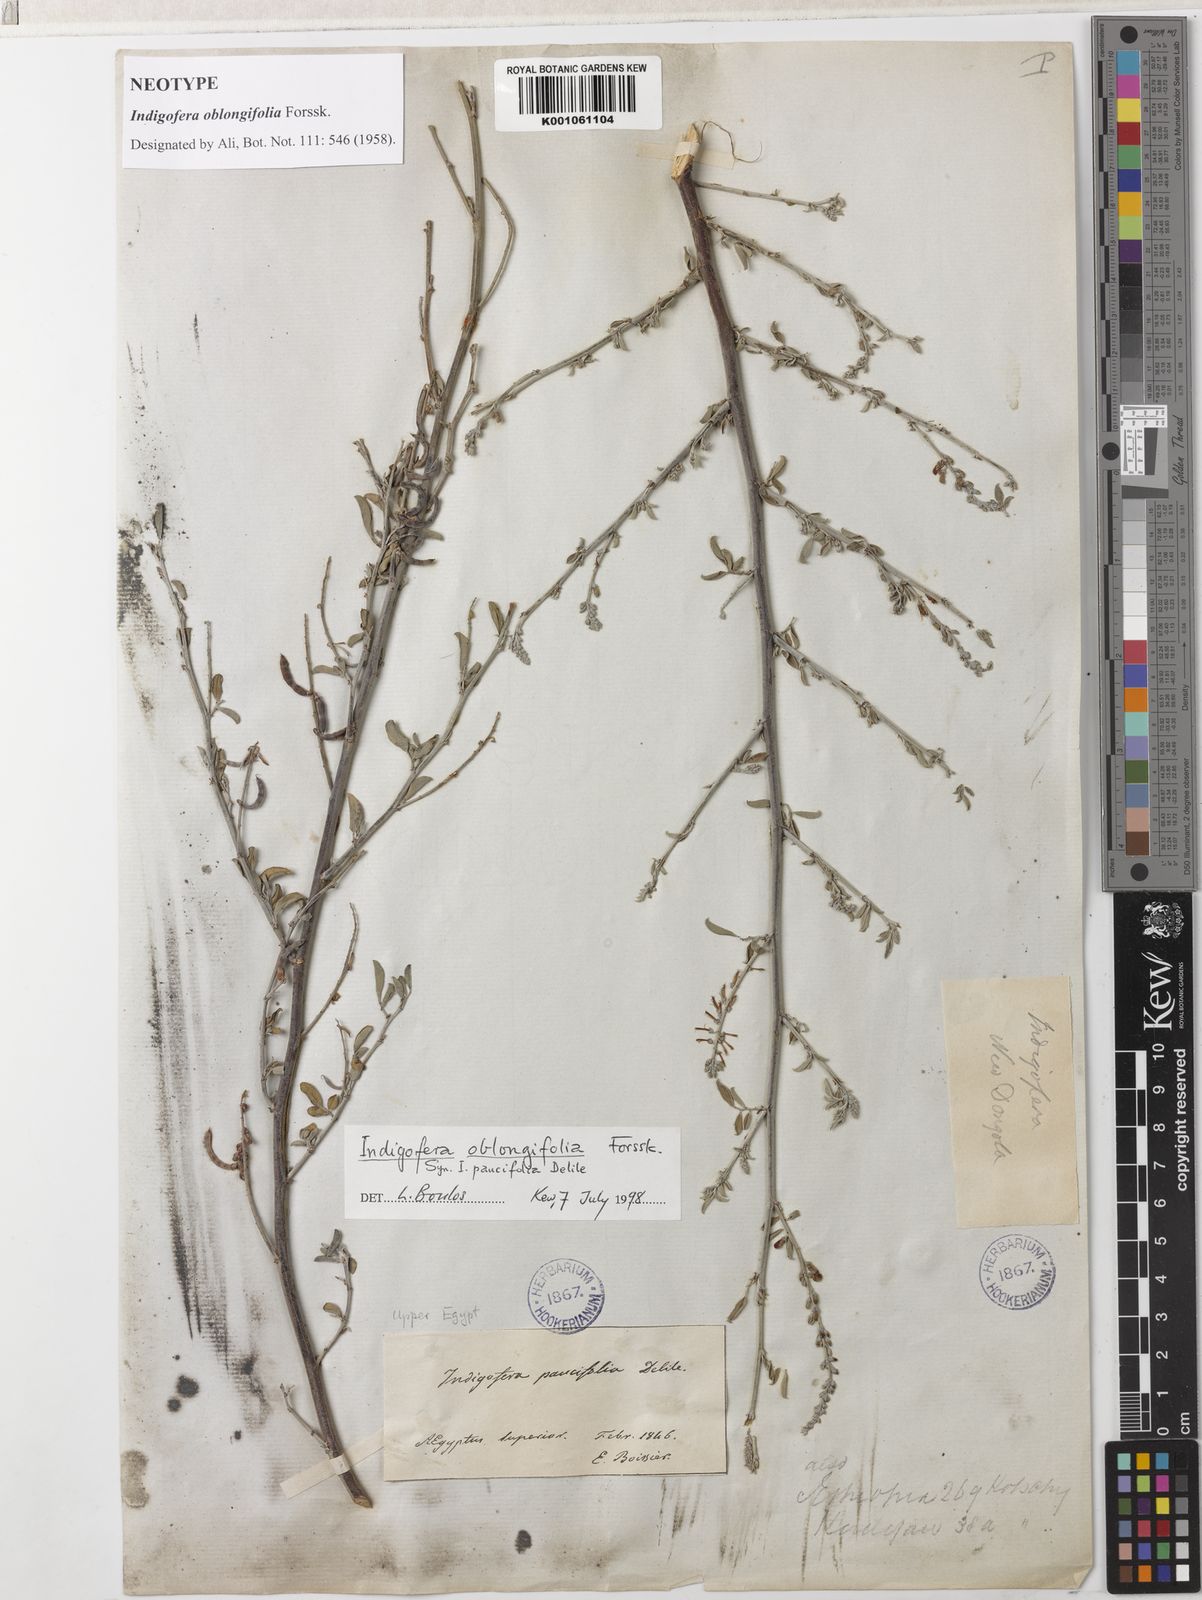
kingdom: Plantae
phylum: Tracheophyta
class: Magnoliopsida
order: Fabales
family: Fabaceae
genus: Indigofera
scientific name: Indigofera oblongifolia
